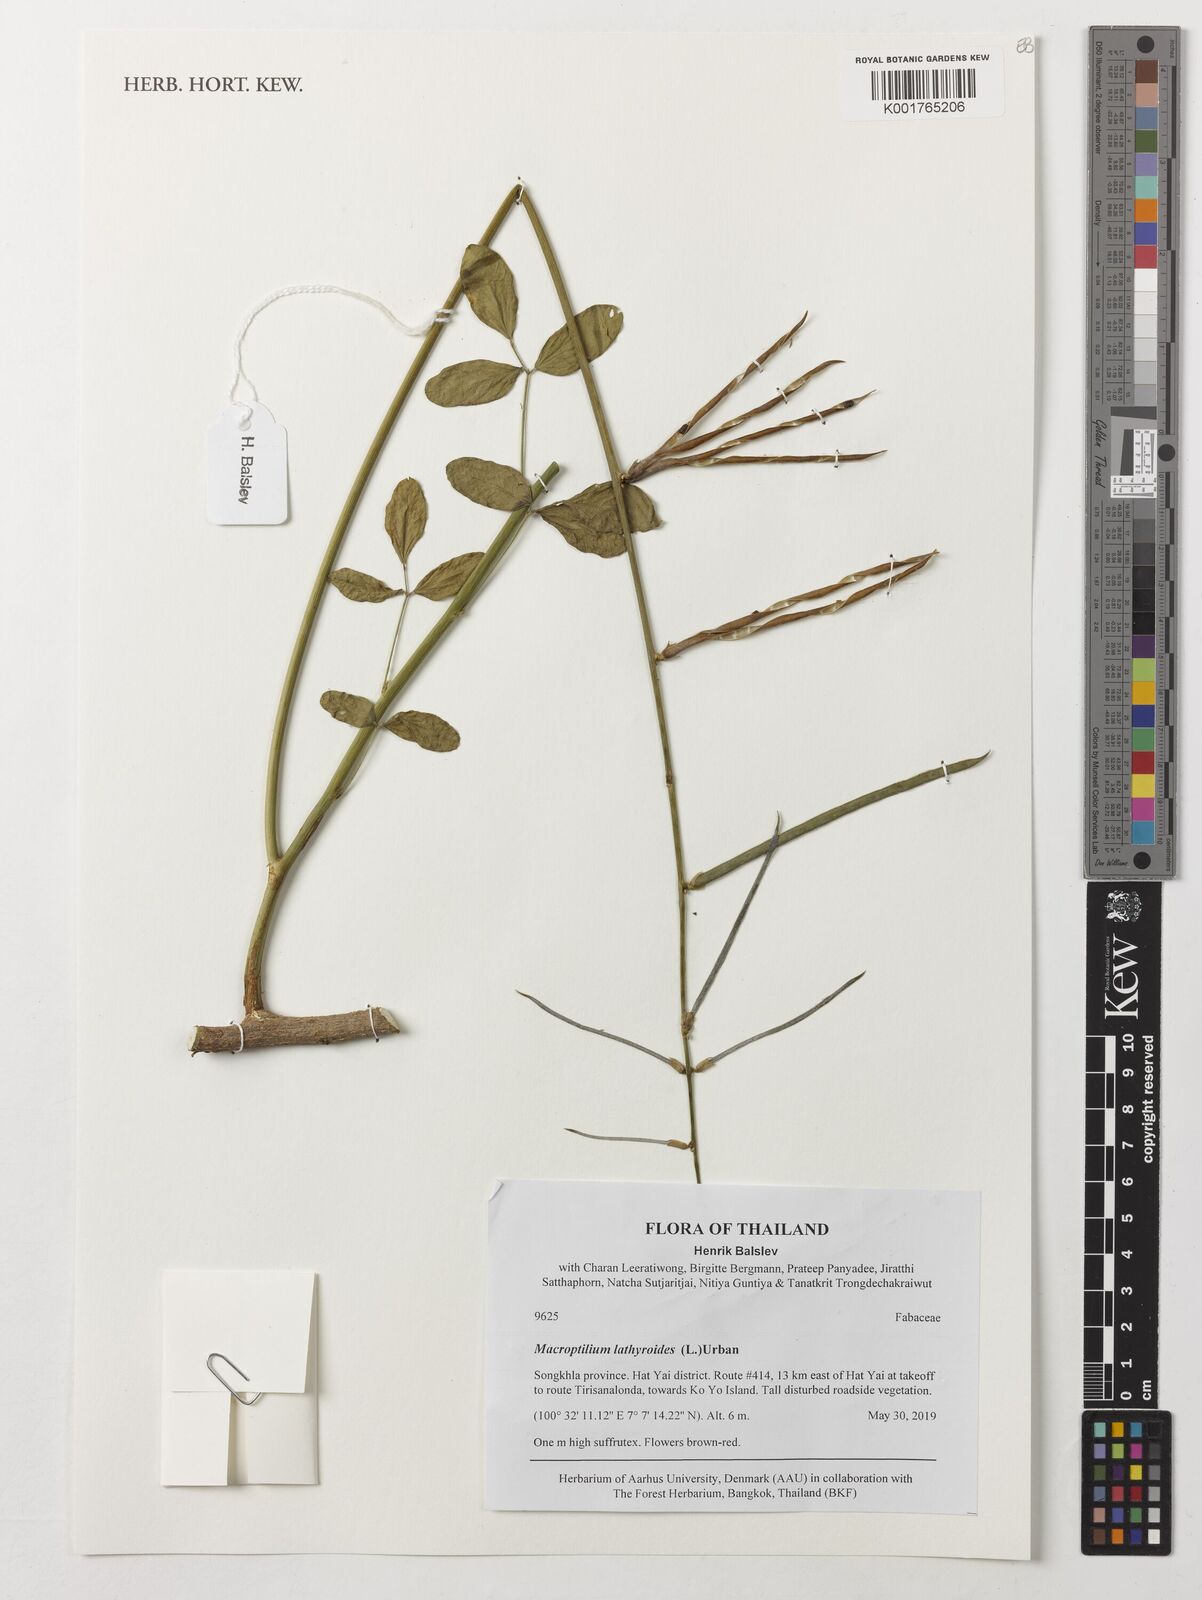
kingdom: Plantae
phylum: Tracheophyta
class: Magnoliopsida
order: Fabales
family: Fabaceae
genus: Macroptilium
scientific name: Macroptilium lathyroides
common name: Wild bushbean
